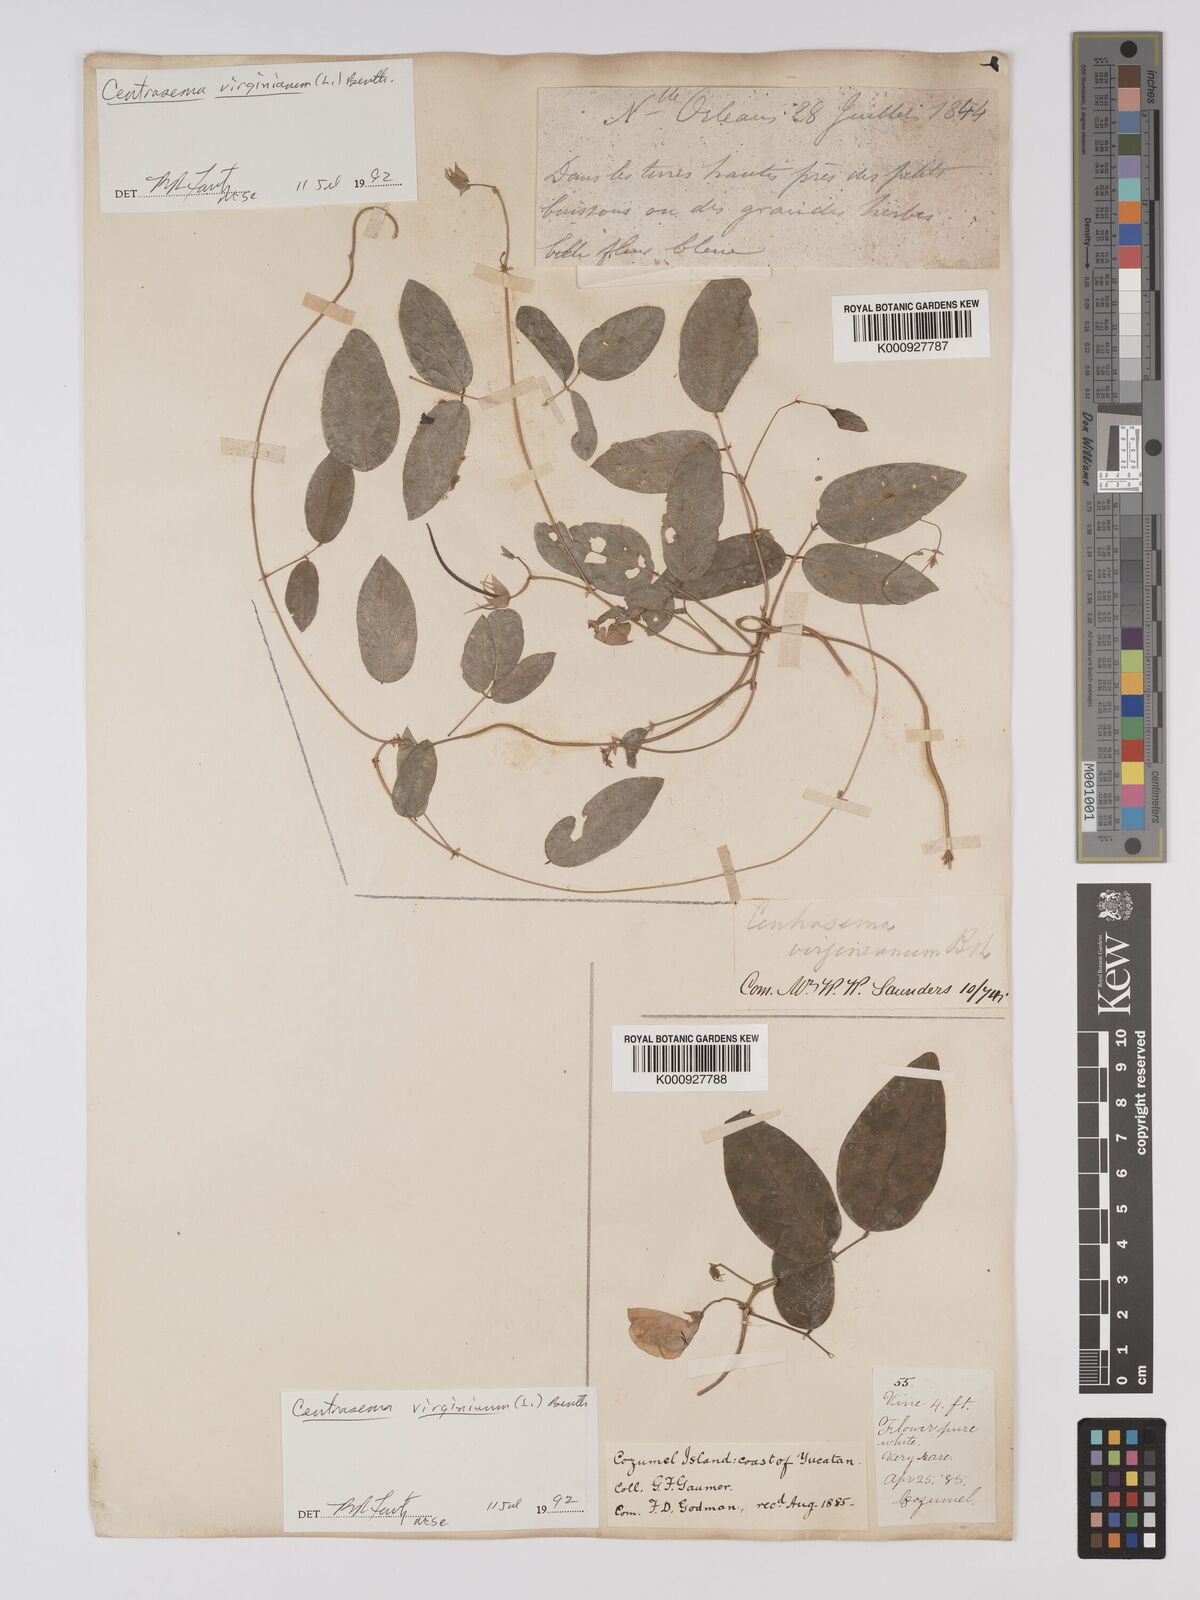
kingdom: Plantae
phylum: Tracheophyta
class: Magnoliopsida
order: Fabales
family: Fabaceae
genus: Centrosema
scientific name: Centrosema virginianum
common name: Butterfly-pea
